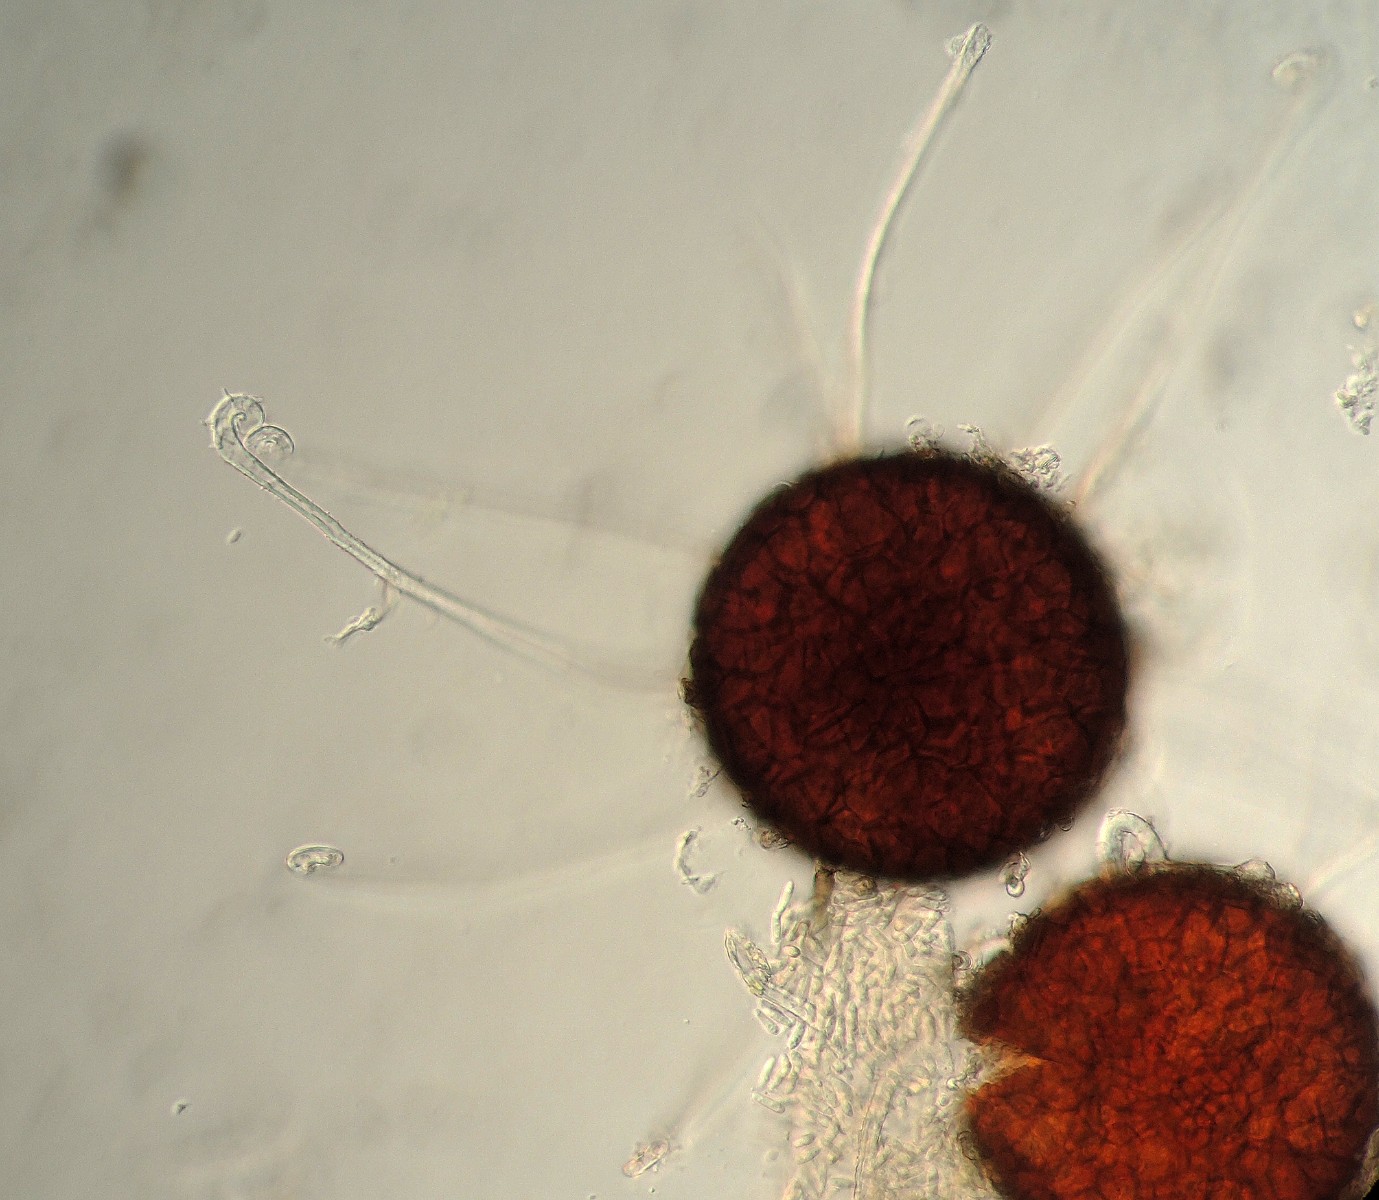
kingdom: Fungi
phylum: Ascomycota
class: Leotiomycetes
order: Helotiales
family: Erysiphaceae
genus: Erysiphe
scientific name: Erysiphe prunastri
